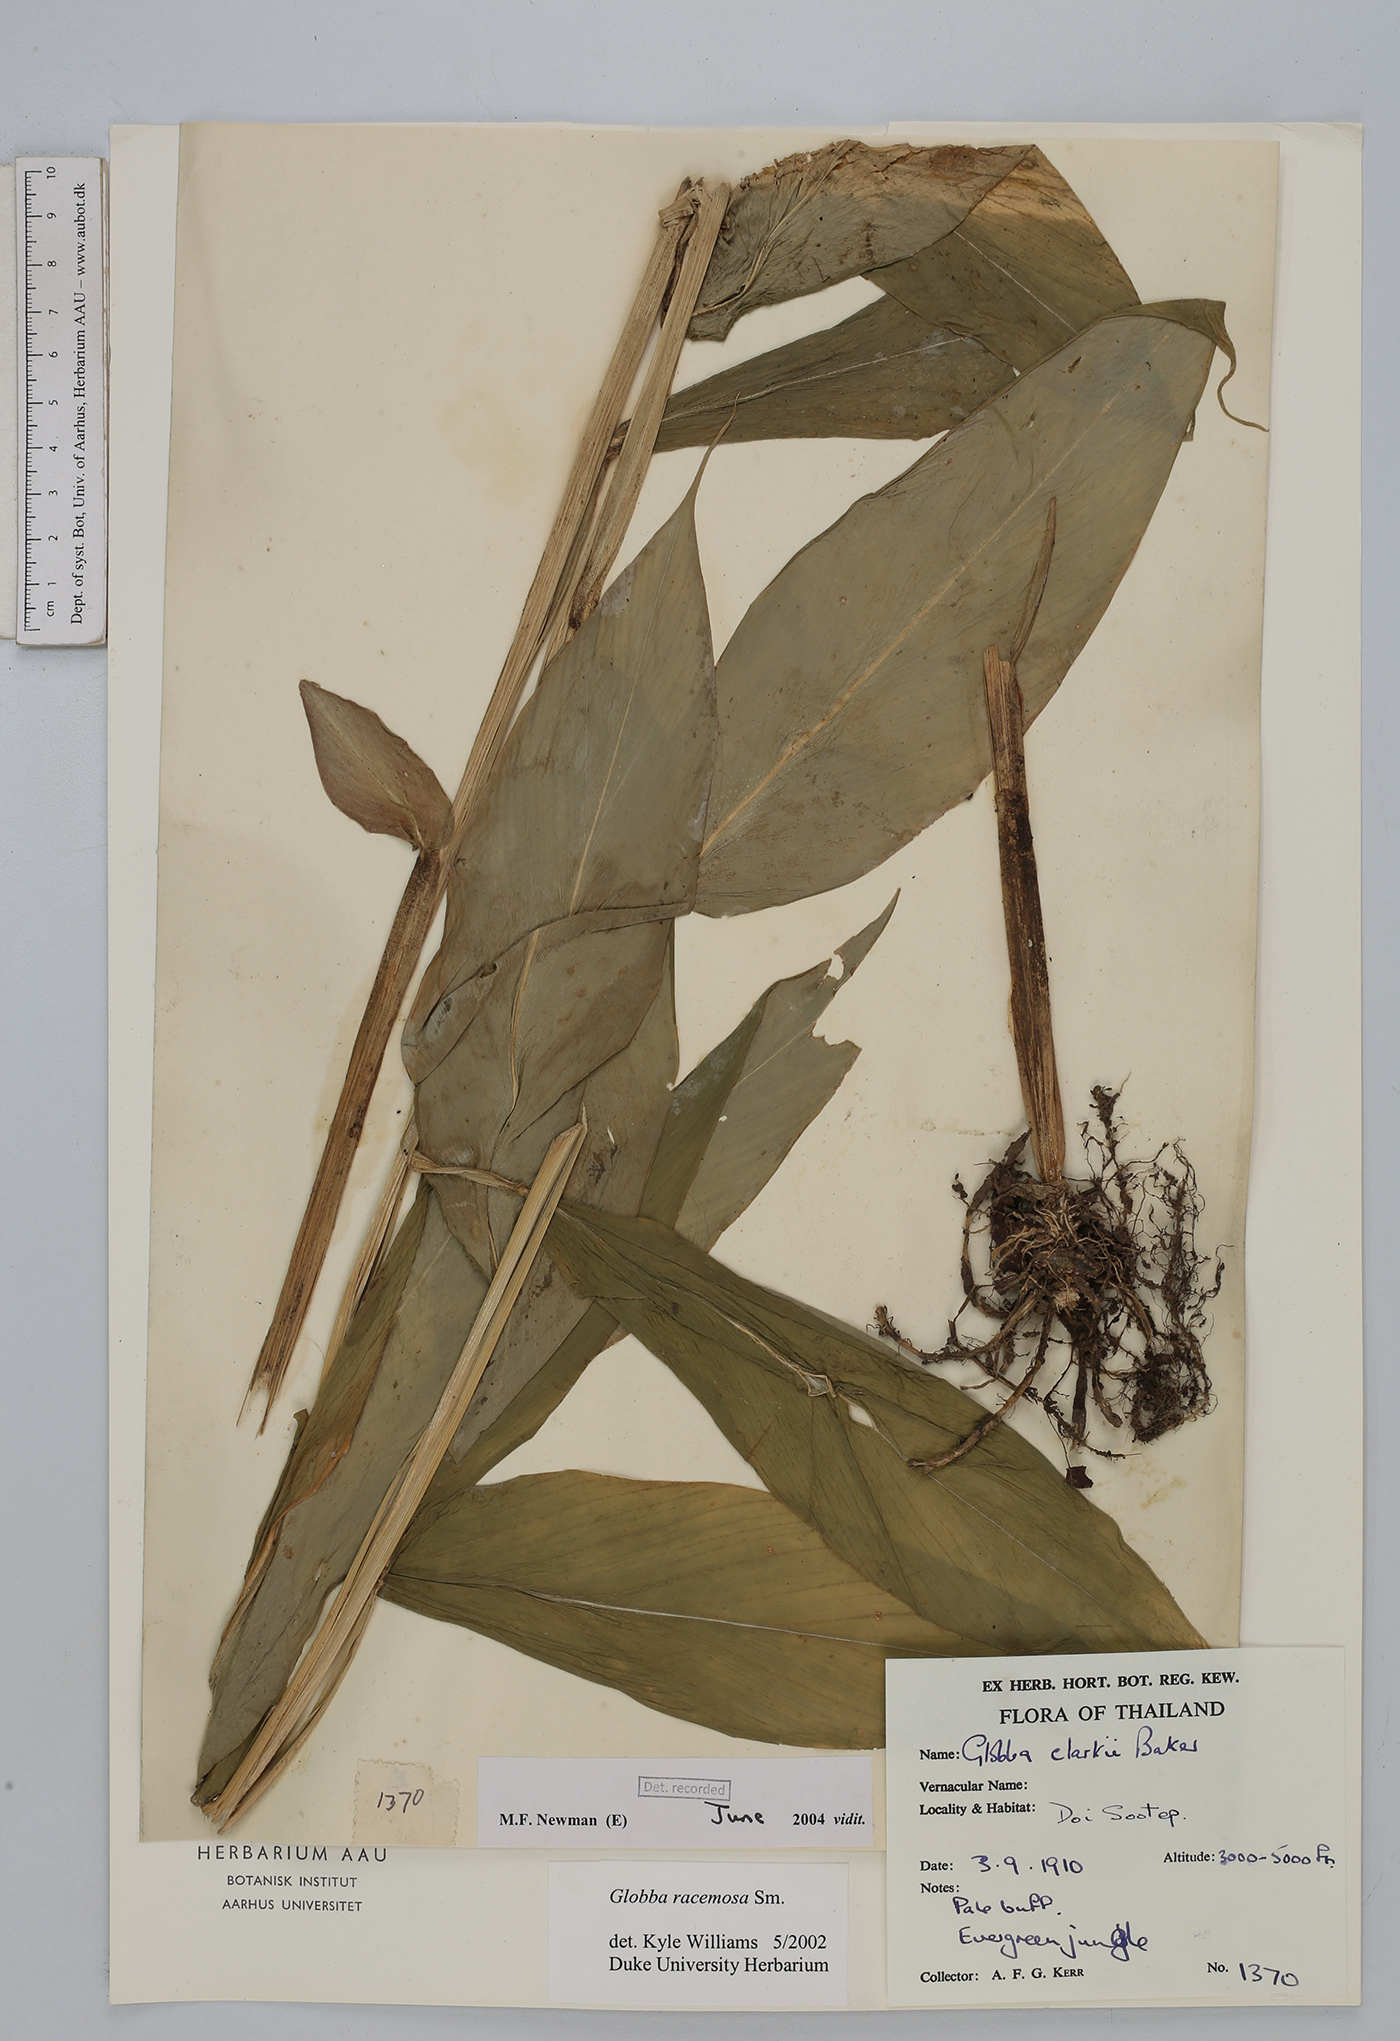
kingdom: Plantae
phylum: Tracheophyta
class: Liliopsida
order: Zingiberales
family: Zingiberaceae
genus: Globba
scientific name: Globba racemosa
